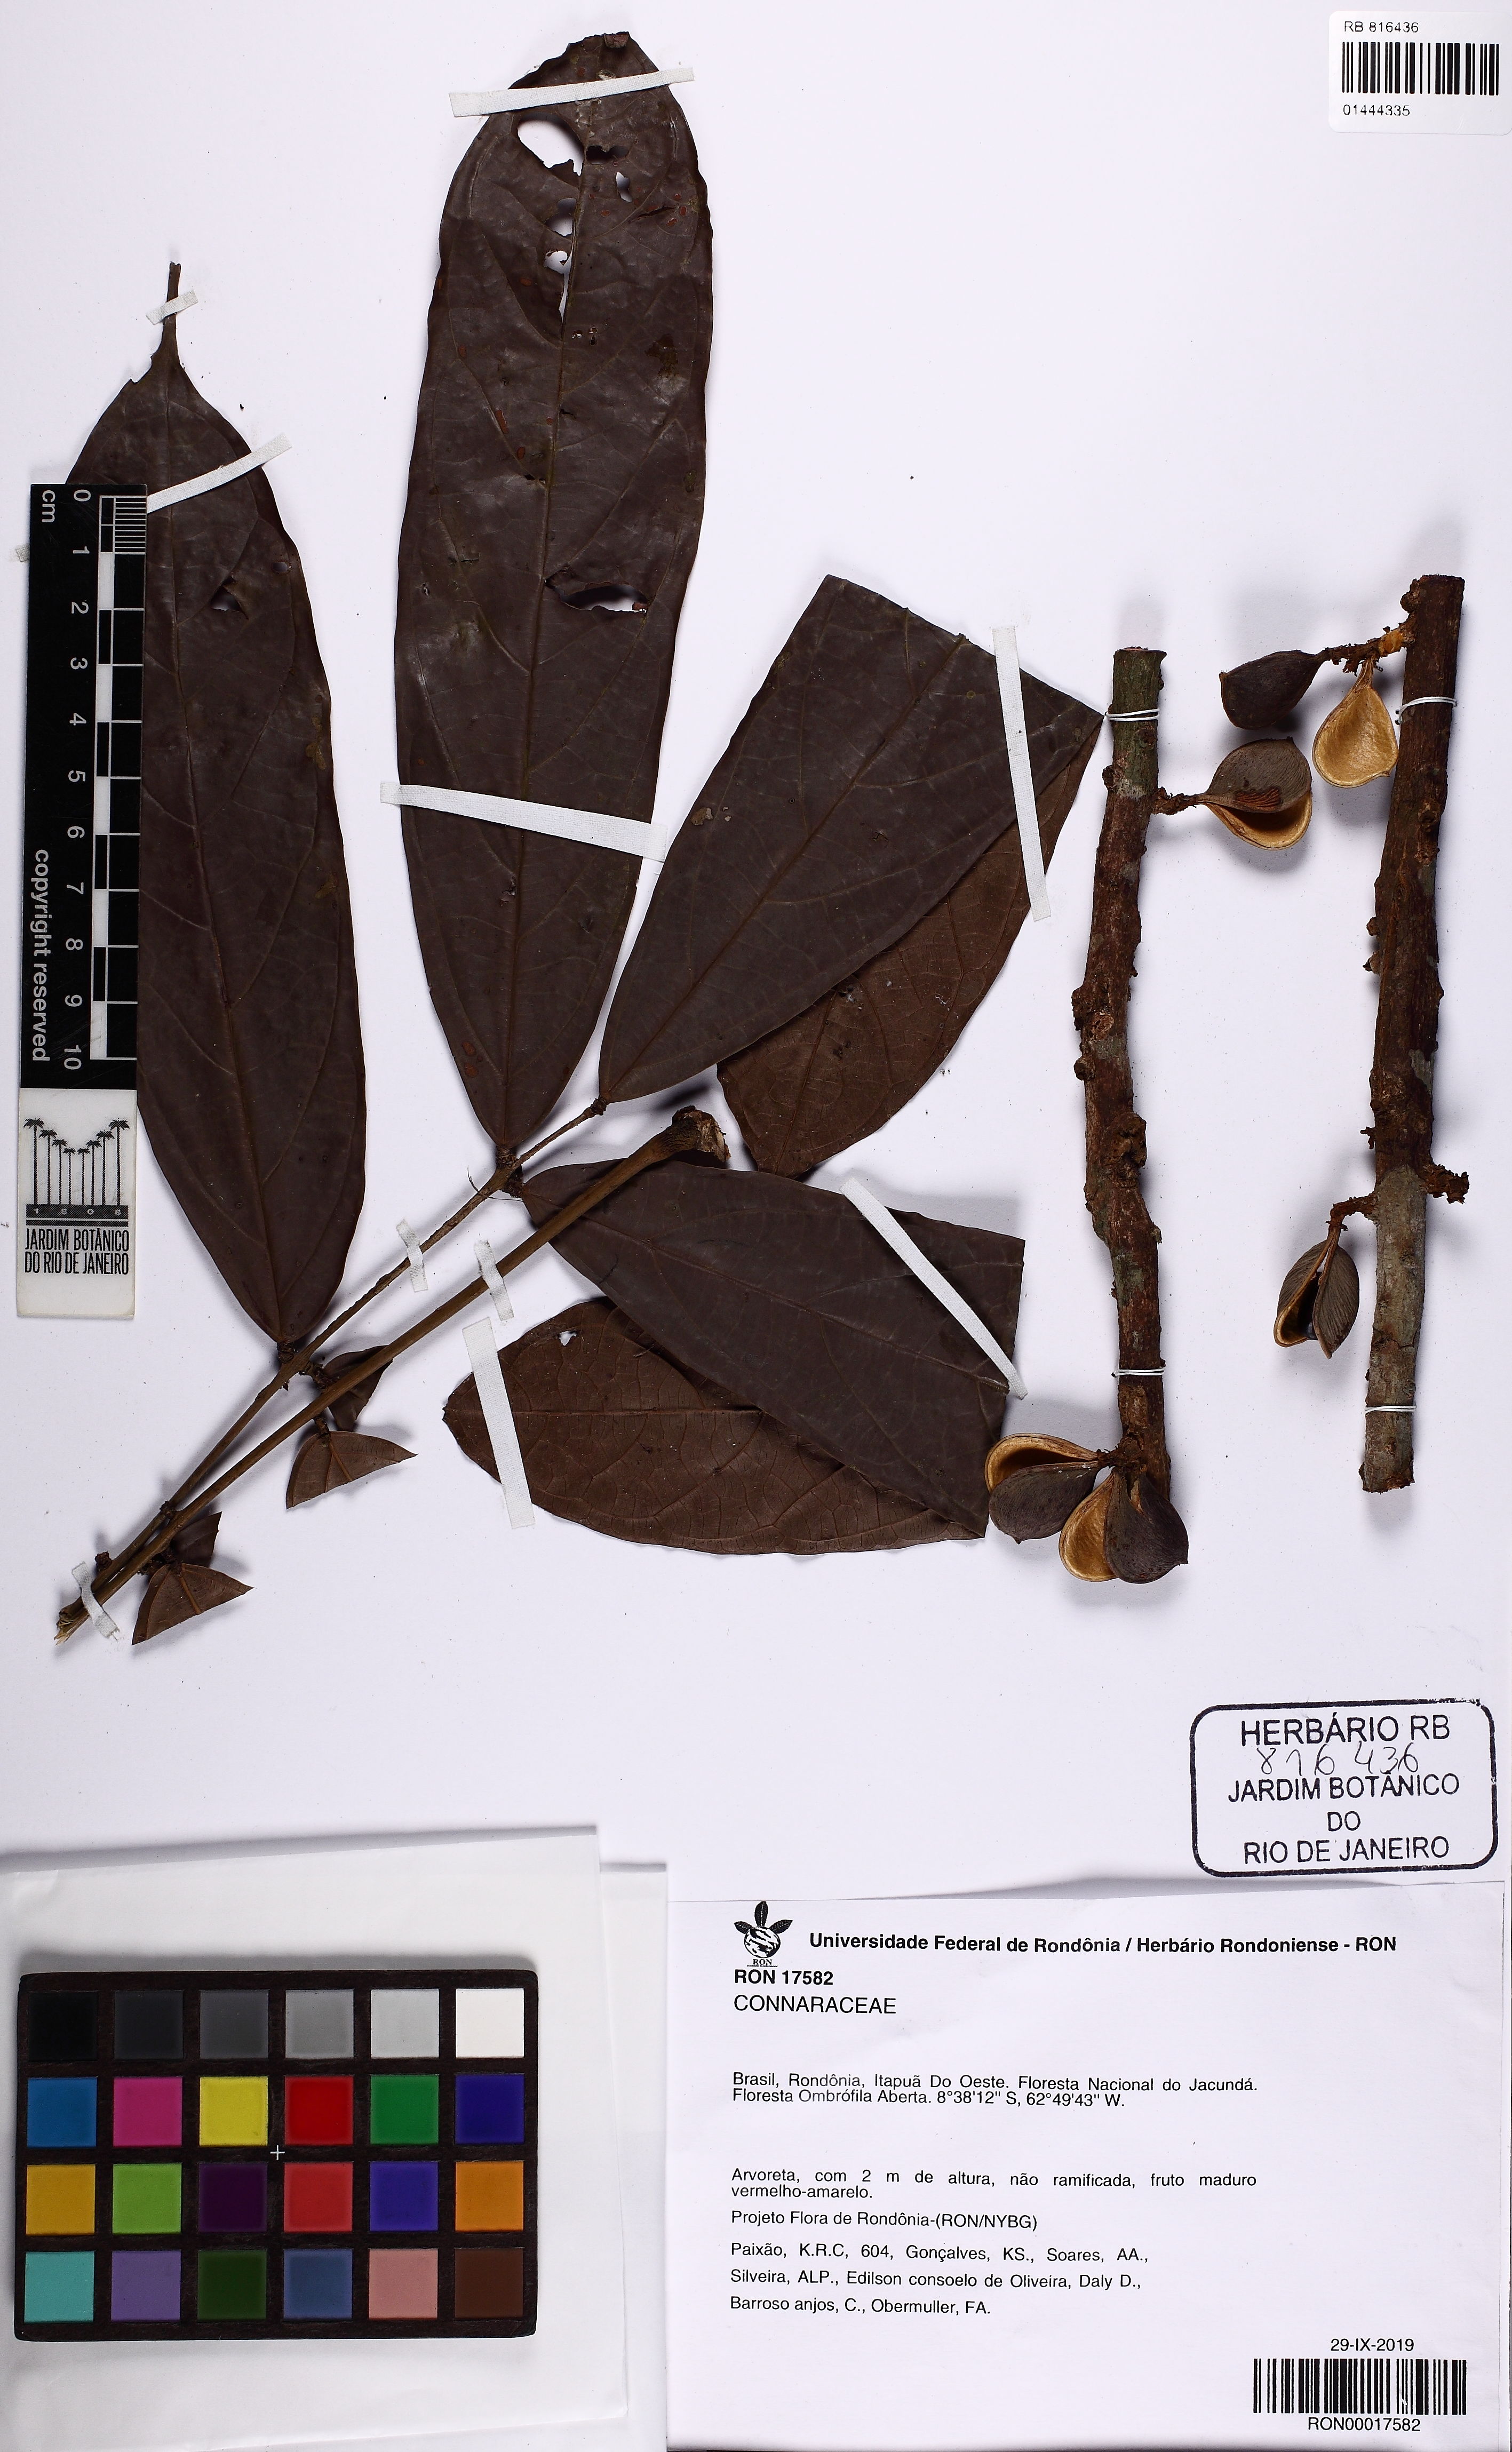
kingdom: Plantae
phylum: Tracheophyta
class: Magnoliopsida
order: Oxalidales
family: Connaraceae
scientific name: Connaraceae
